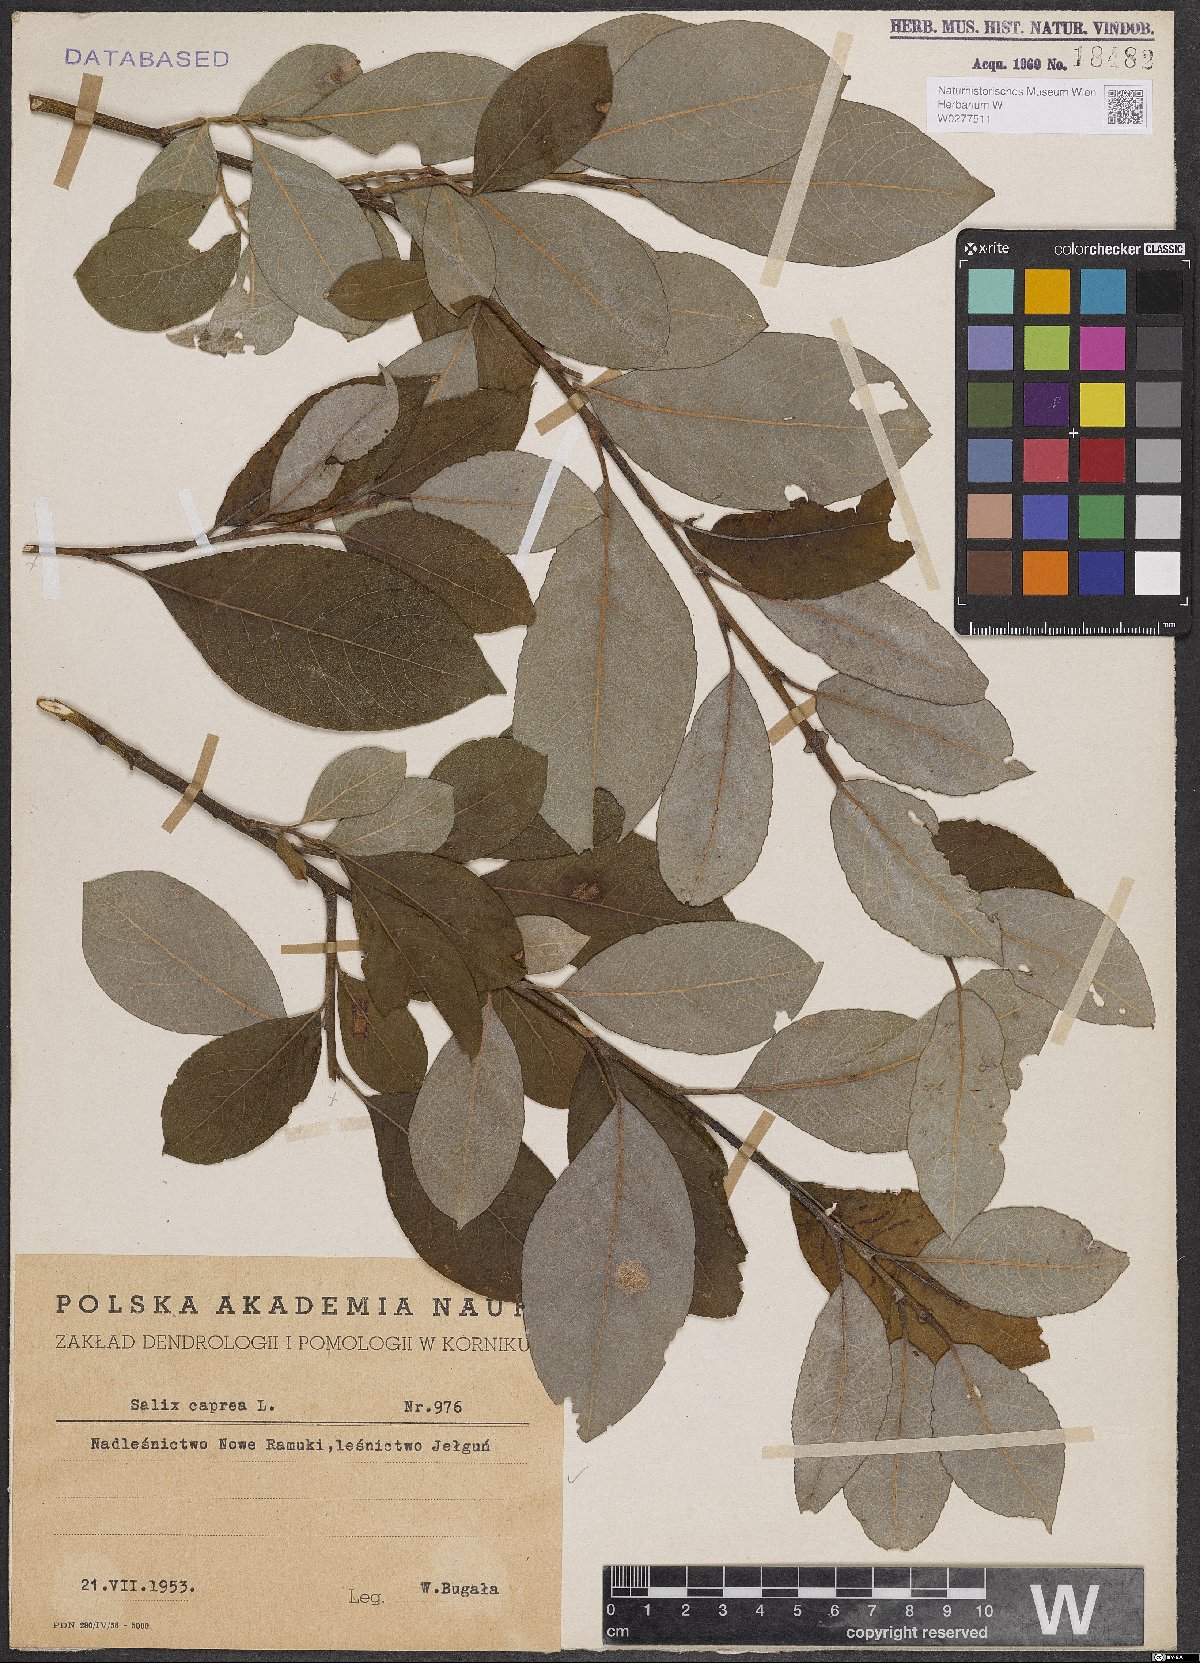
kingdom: Plantae
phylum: Tracheophyta
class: Magnoliopsida
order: Malpighiales
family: Salicaceae
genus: Salix
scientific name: Salix caprea
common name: Goat willow
